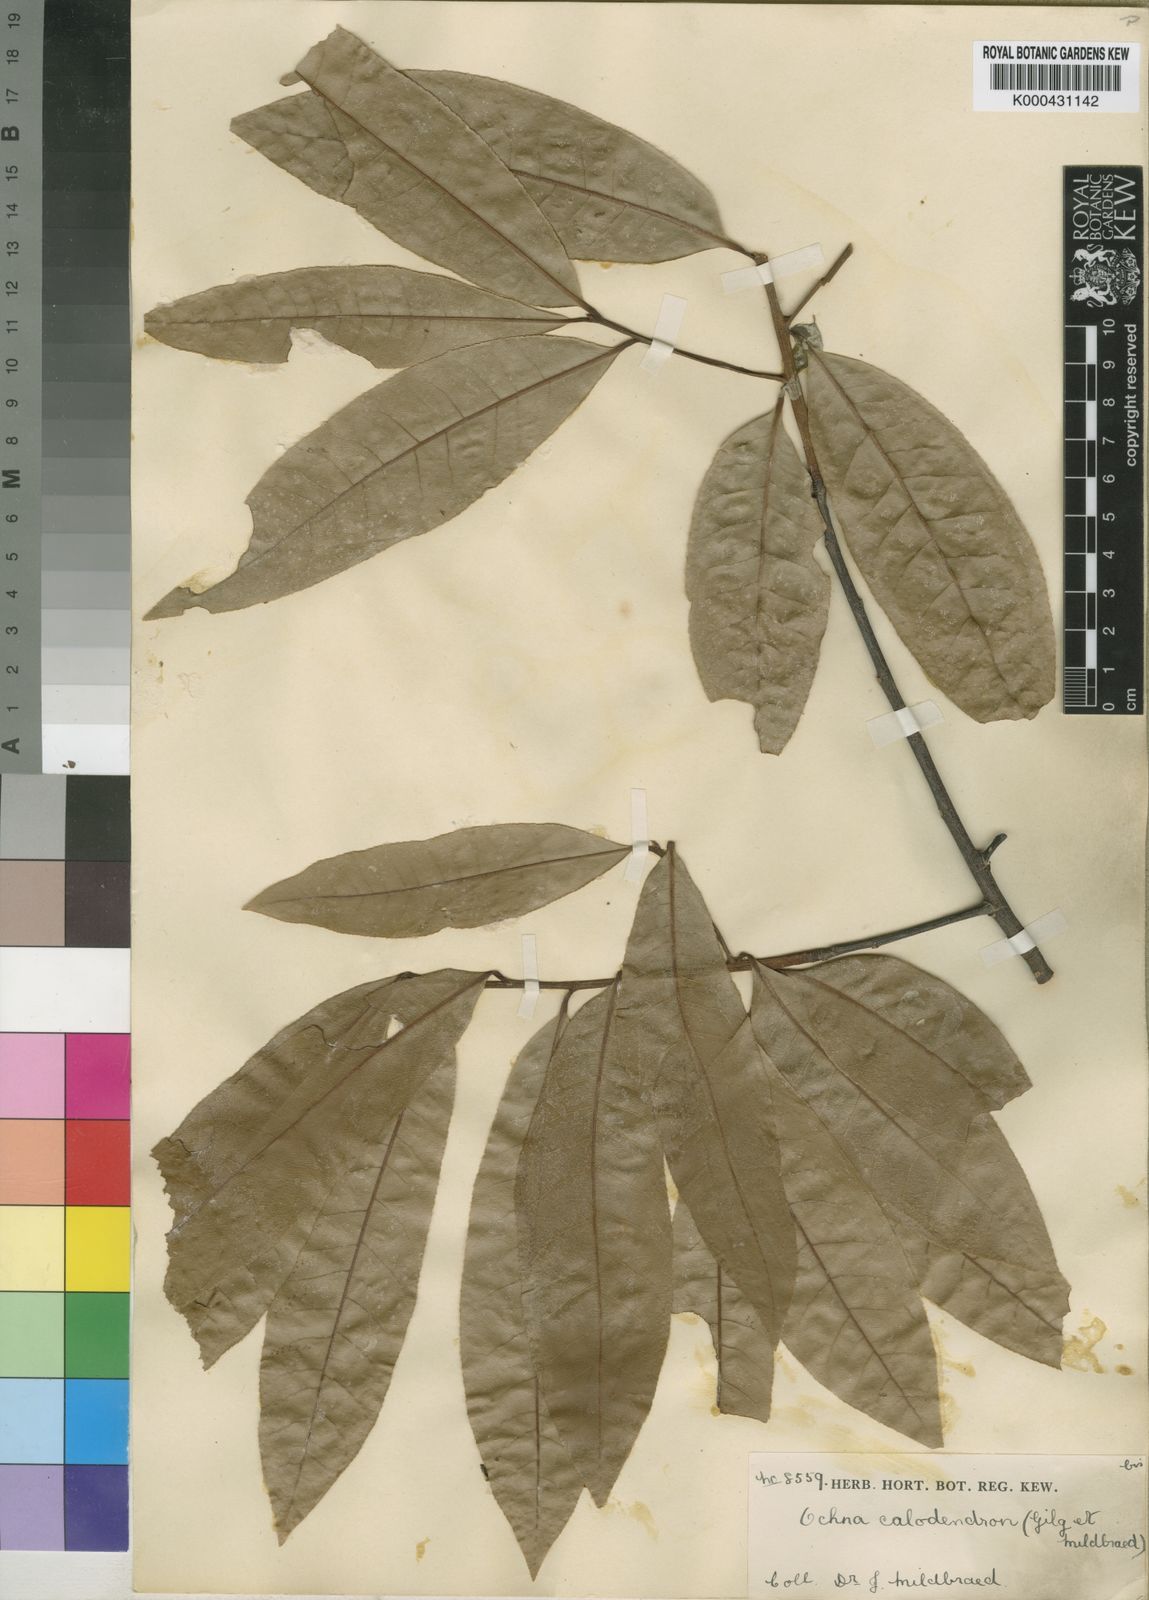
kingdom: Plantae
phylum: Tracheophyta
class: Magnoliopsida
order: Malpighiales
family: Ochnaceae
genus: Ochna
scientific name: Ochna calodendron
